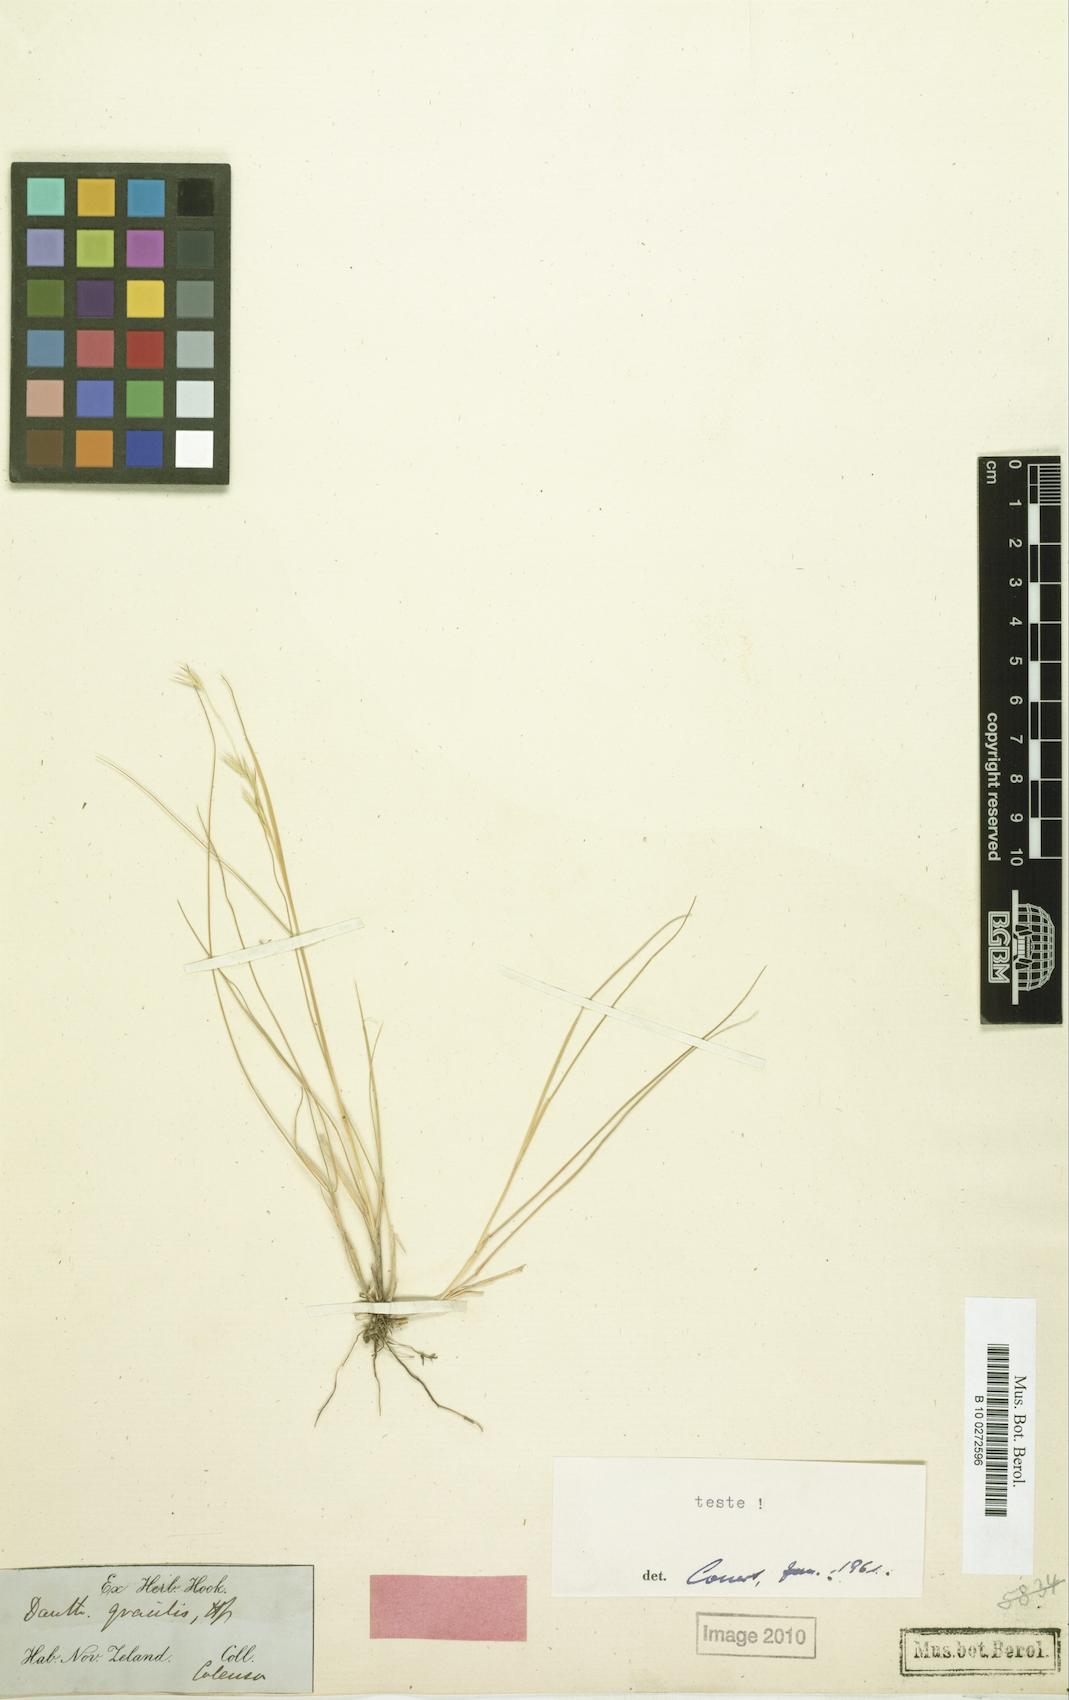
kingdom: Plantae
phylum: Tracheophyta
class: Liliopsida
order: Poales
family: Poaceae
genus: Rytidosperma
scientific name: Rytidosperma gracile
